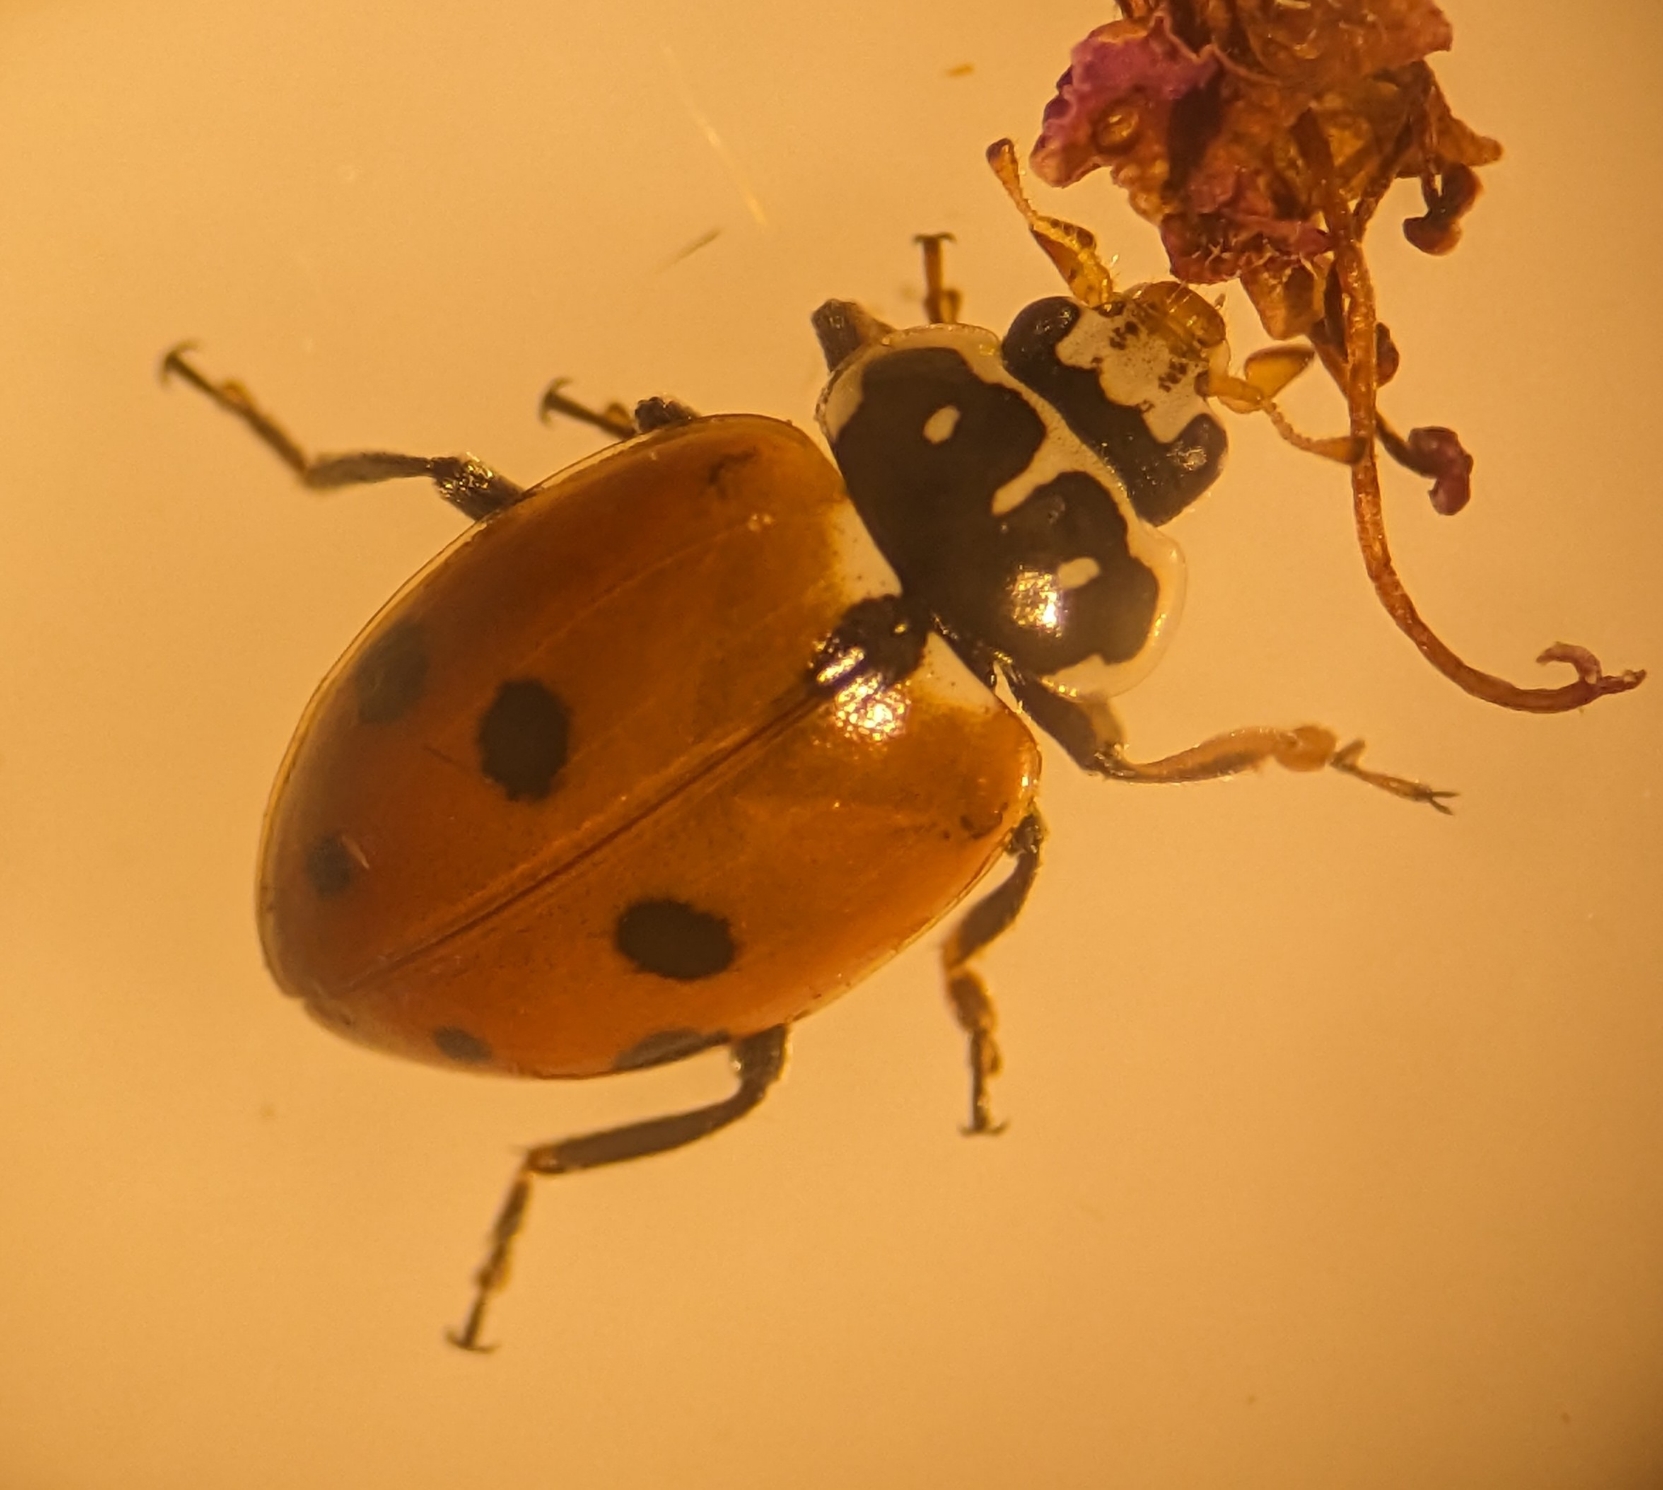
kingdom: Animalia
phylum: Arthropoda
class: Insecta
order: Coleoptera
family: Coccinellidae
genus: Hippodamia
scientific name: Hippodamia variegata
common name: Adonis' mariehøne
